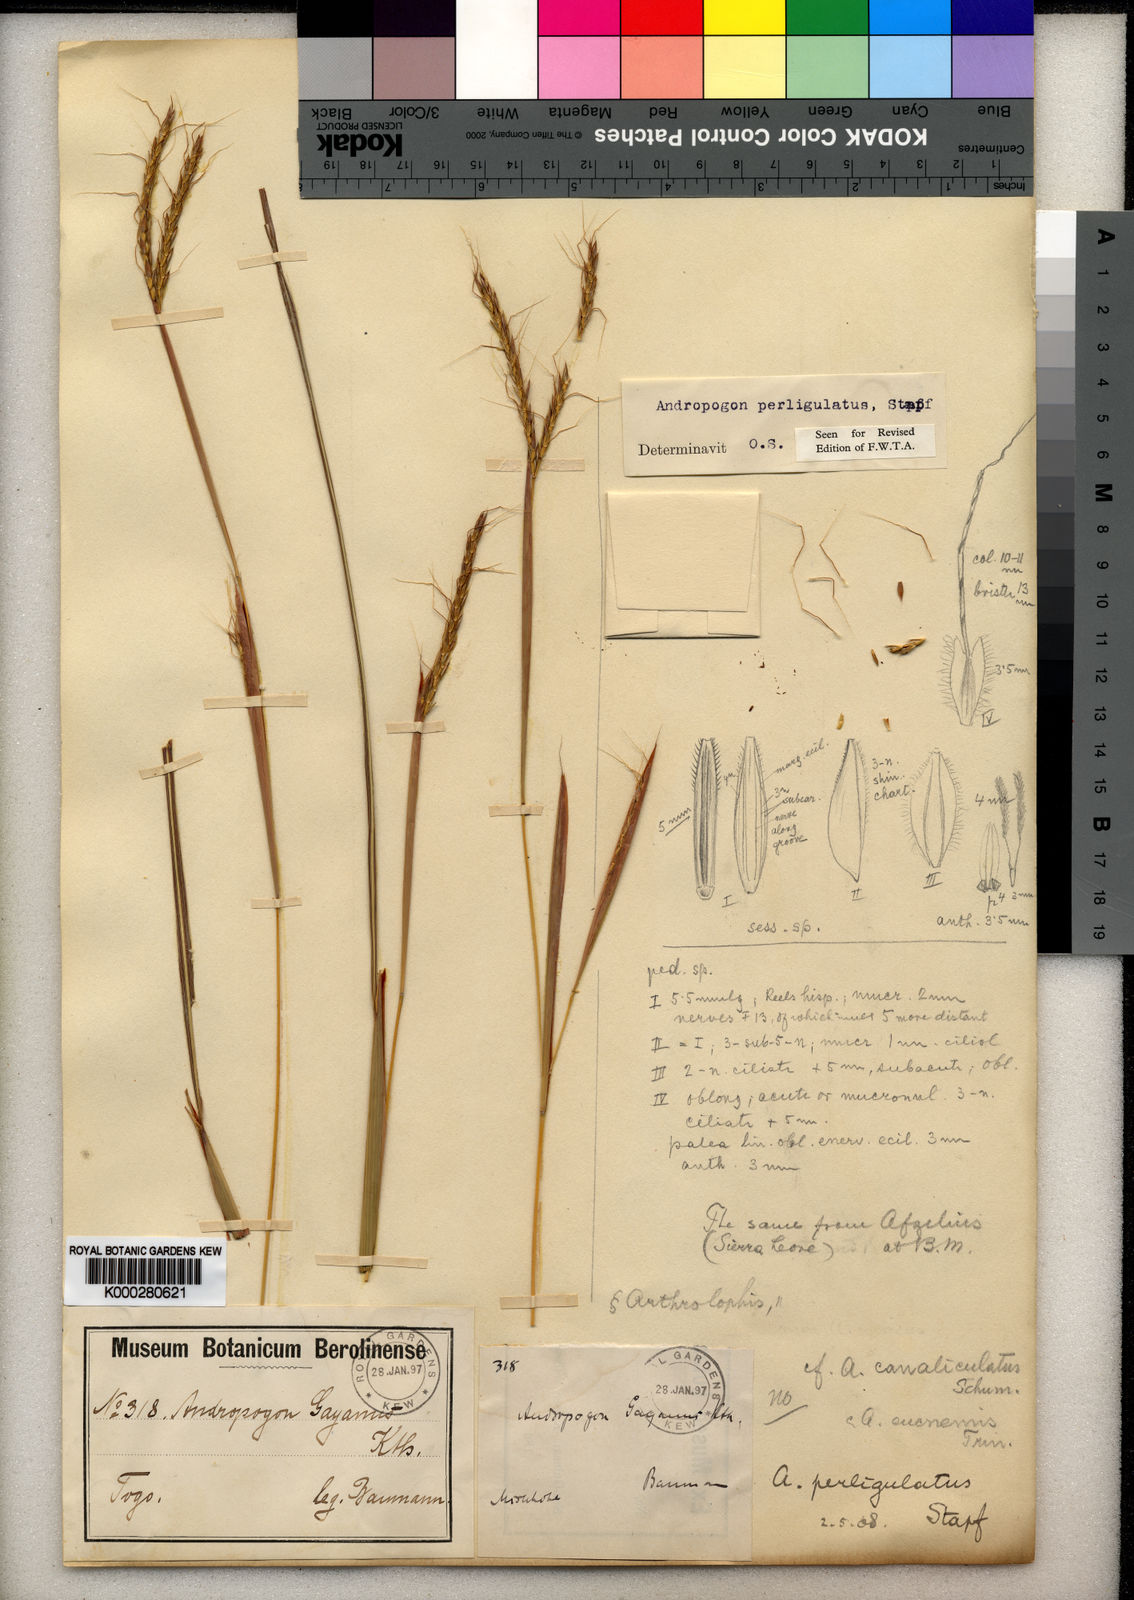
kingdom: Plantae
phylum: Tracheophyta
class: Liliopsida
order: Poales
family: Poaceae
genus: Andropogon
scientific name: Andropogon perligulatus
